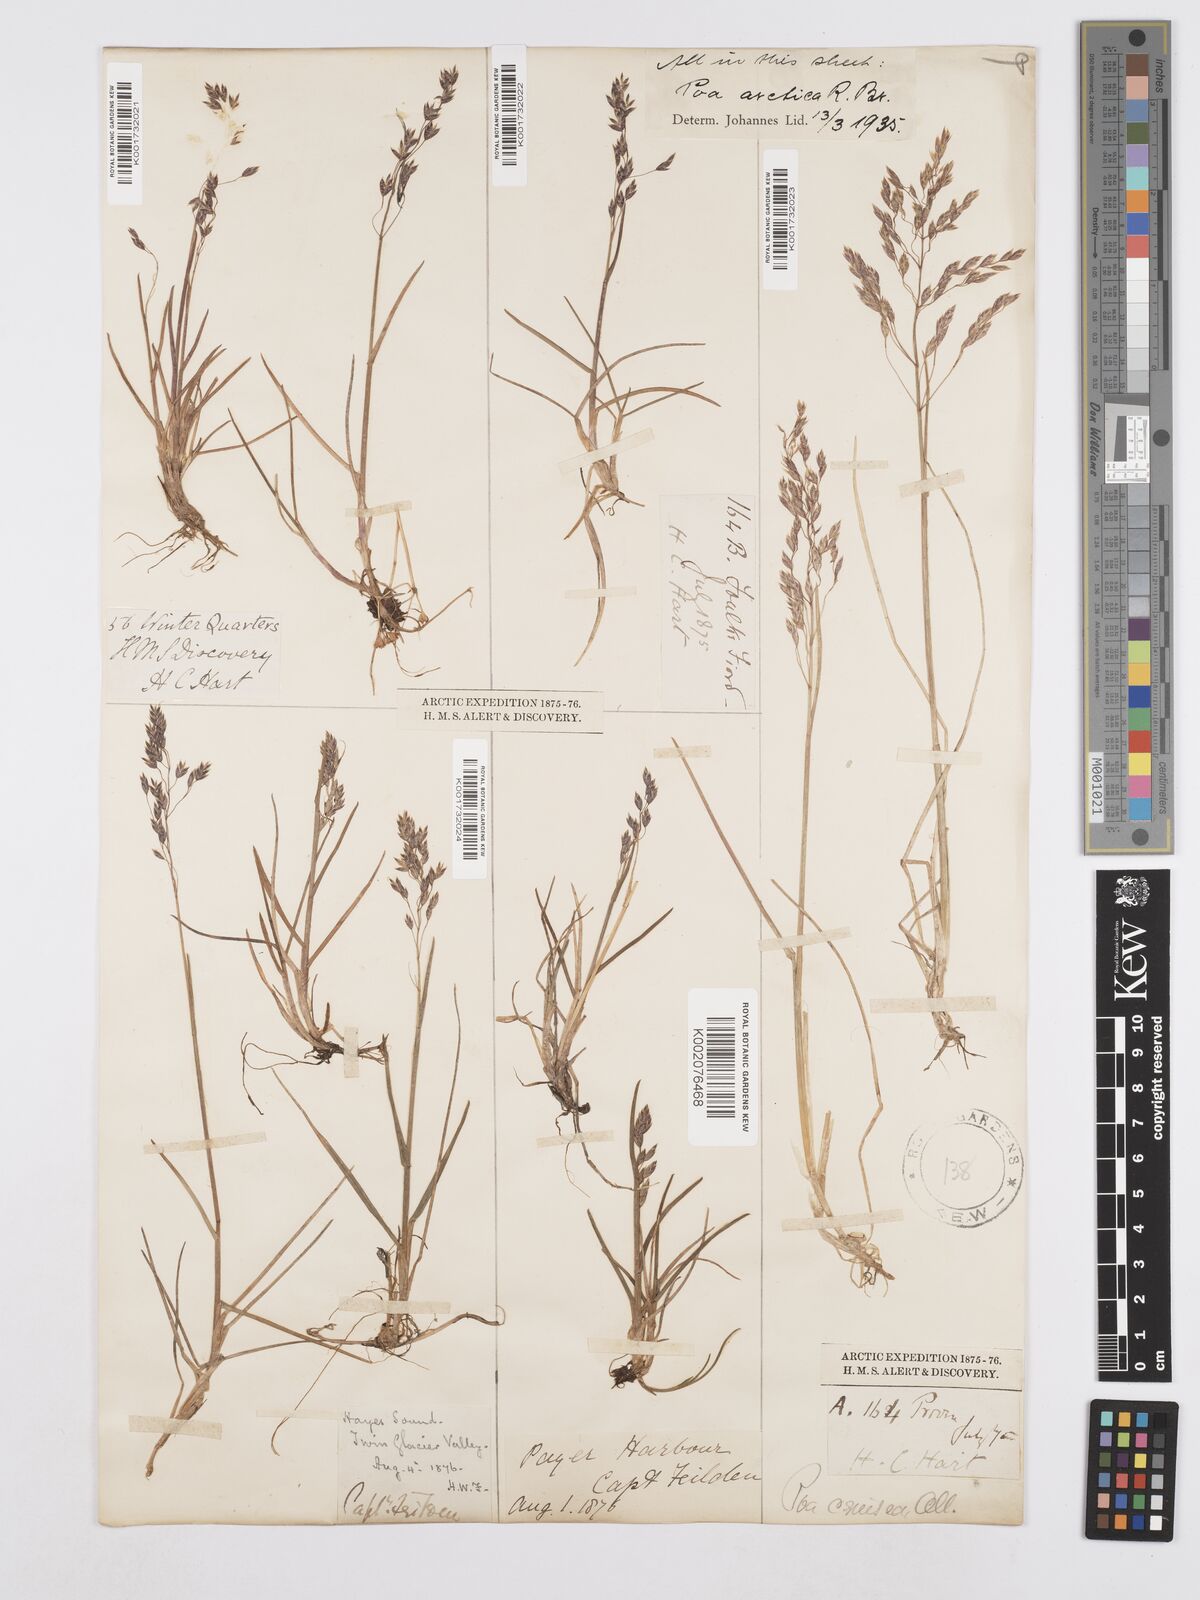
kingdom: Plantae
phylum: Tracheophyta
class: Liliopsida
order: Poales
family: Poaceae
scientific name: Poaceae
